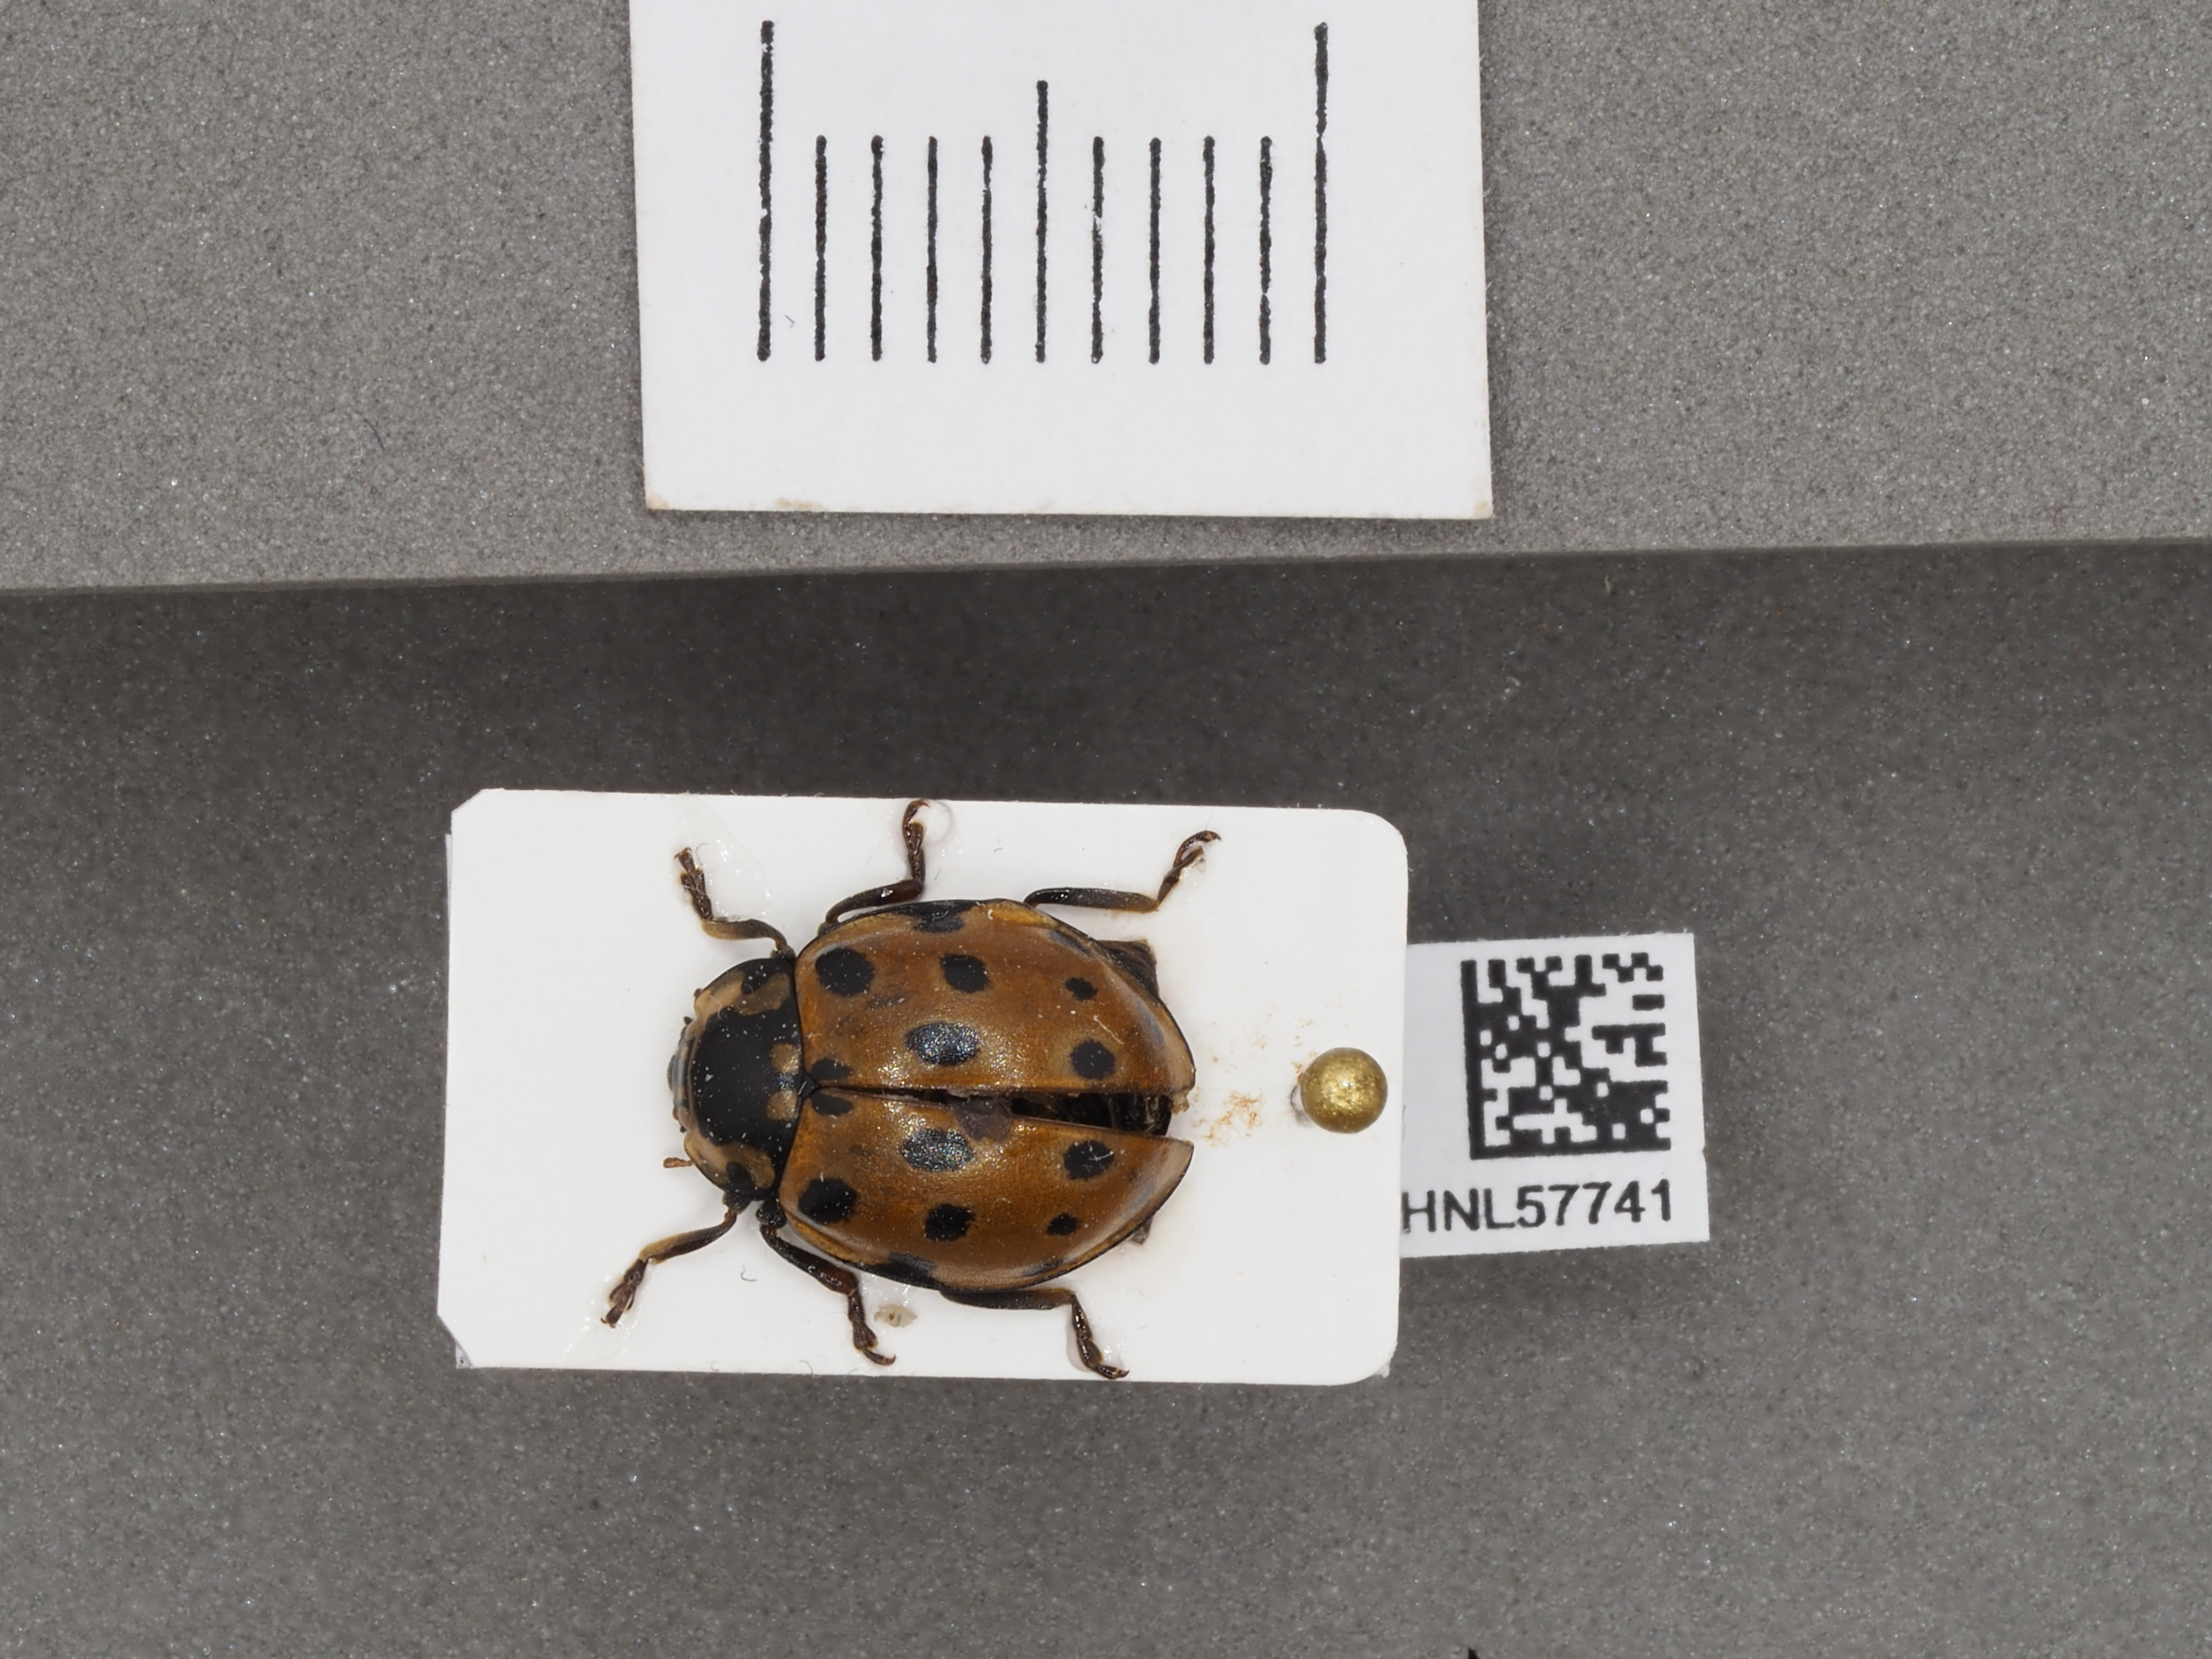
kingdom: Animalia
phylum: Arthropoda
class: Insecta
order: Coleoptera
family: Coccinellidae
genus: Anatis
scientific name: Anatis ocellata
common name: Eyed ladybird
